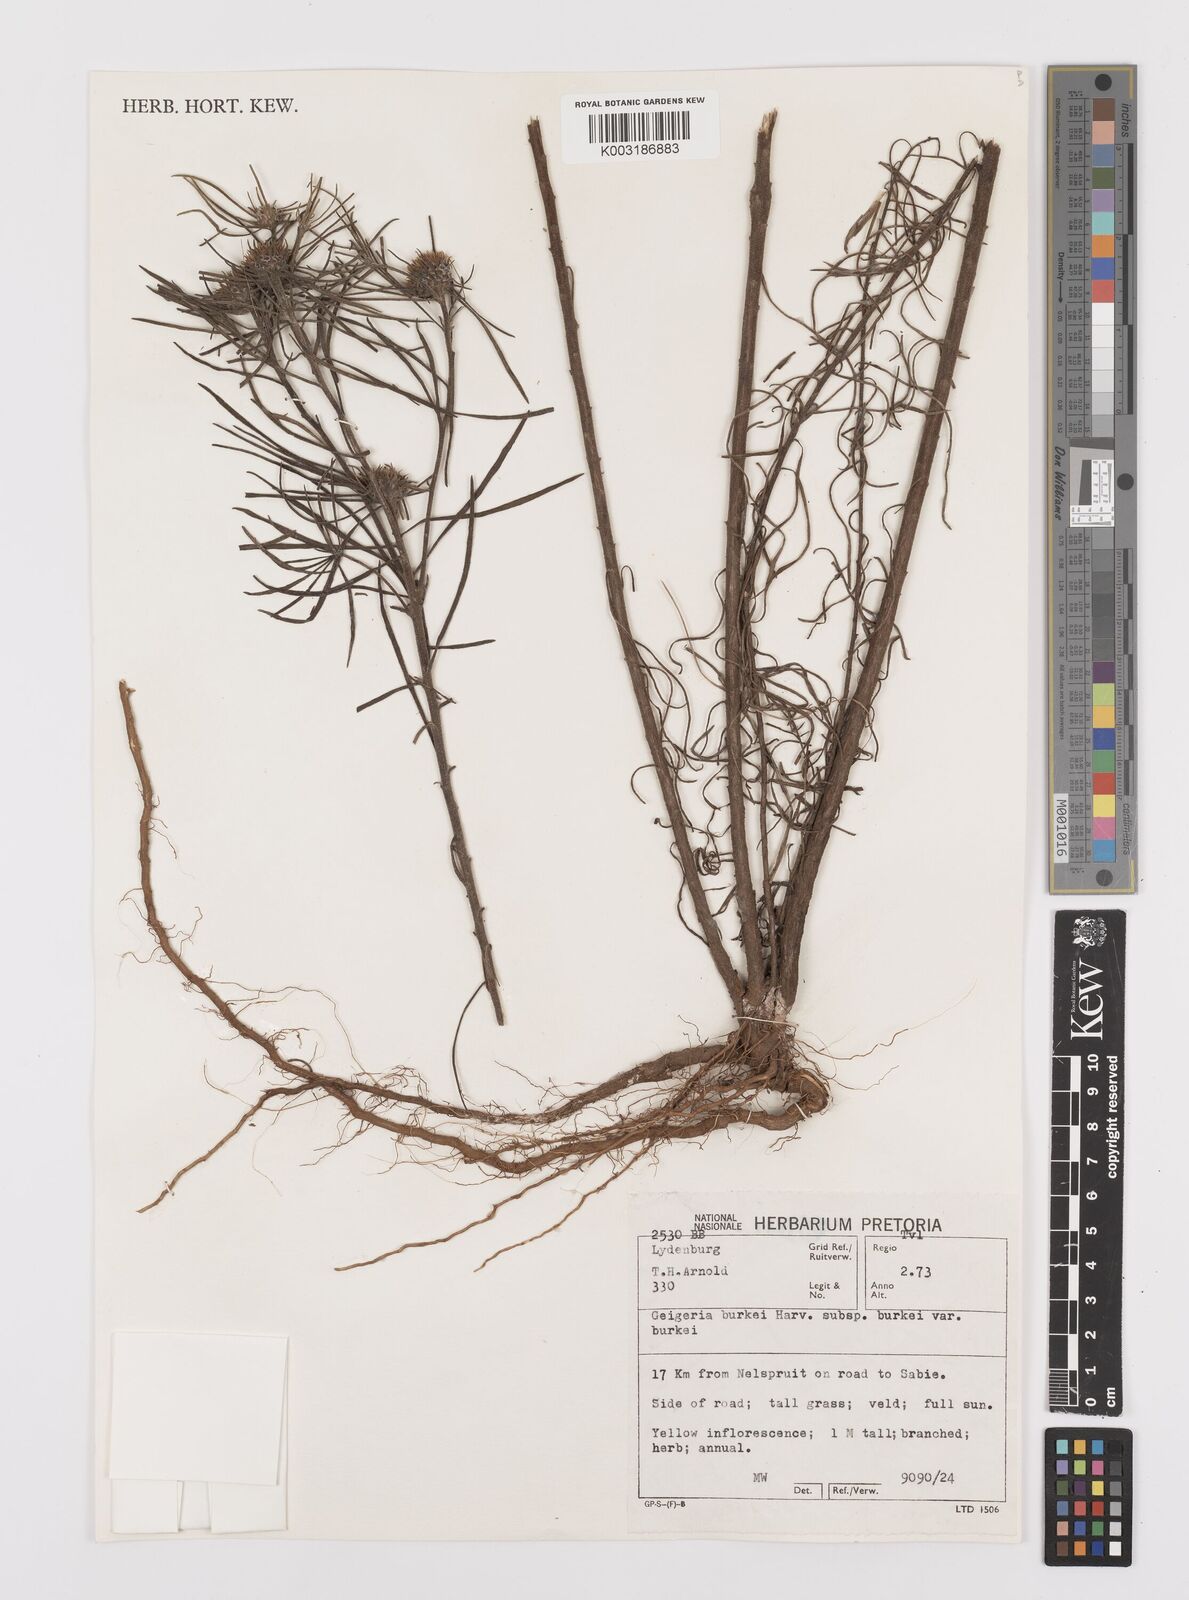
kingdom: Plantae
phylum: Tracheophyta
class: Magnoliopsida
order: Asterales
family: Asteraceae
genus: Geigeria
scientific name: Geigeria burkei
